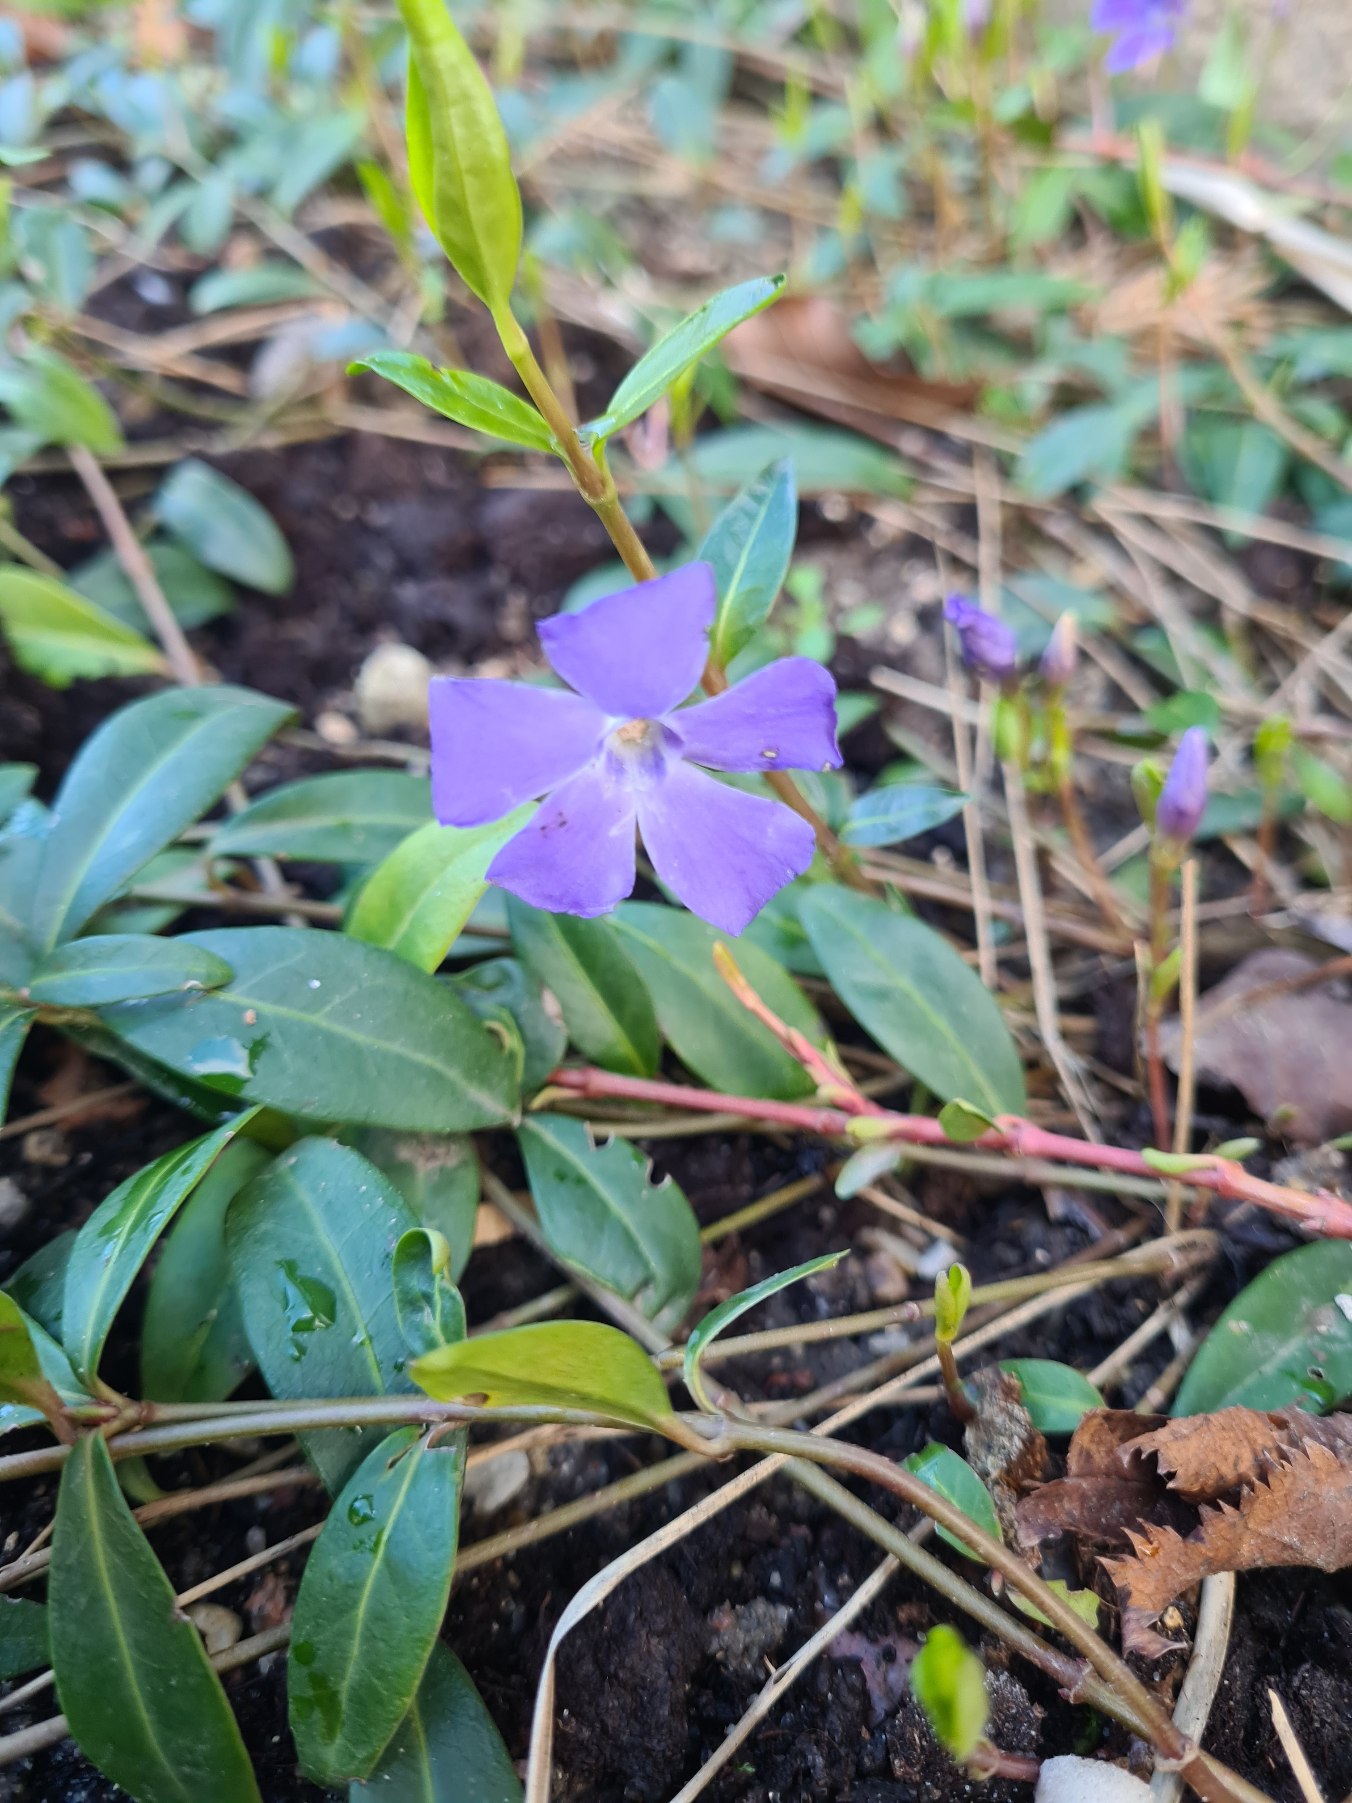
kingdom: Plantae
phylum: Tracheophyta
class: Magnoliopsida
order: Gentianales
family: Apocynaceae
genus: Vinca
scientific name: Vinca minor
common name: Liden singrøn
